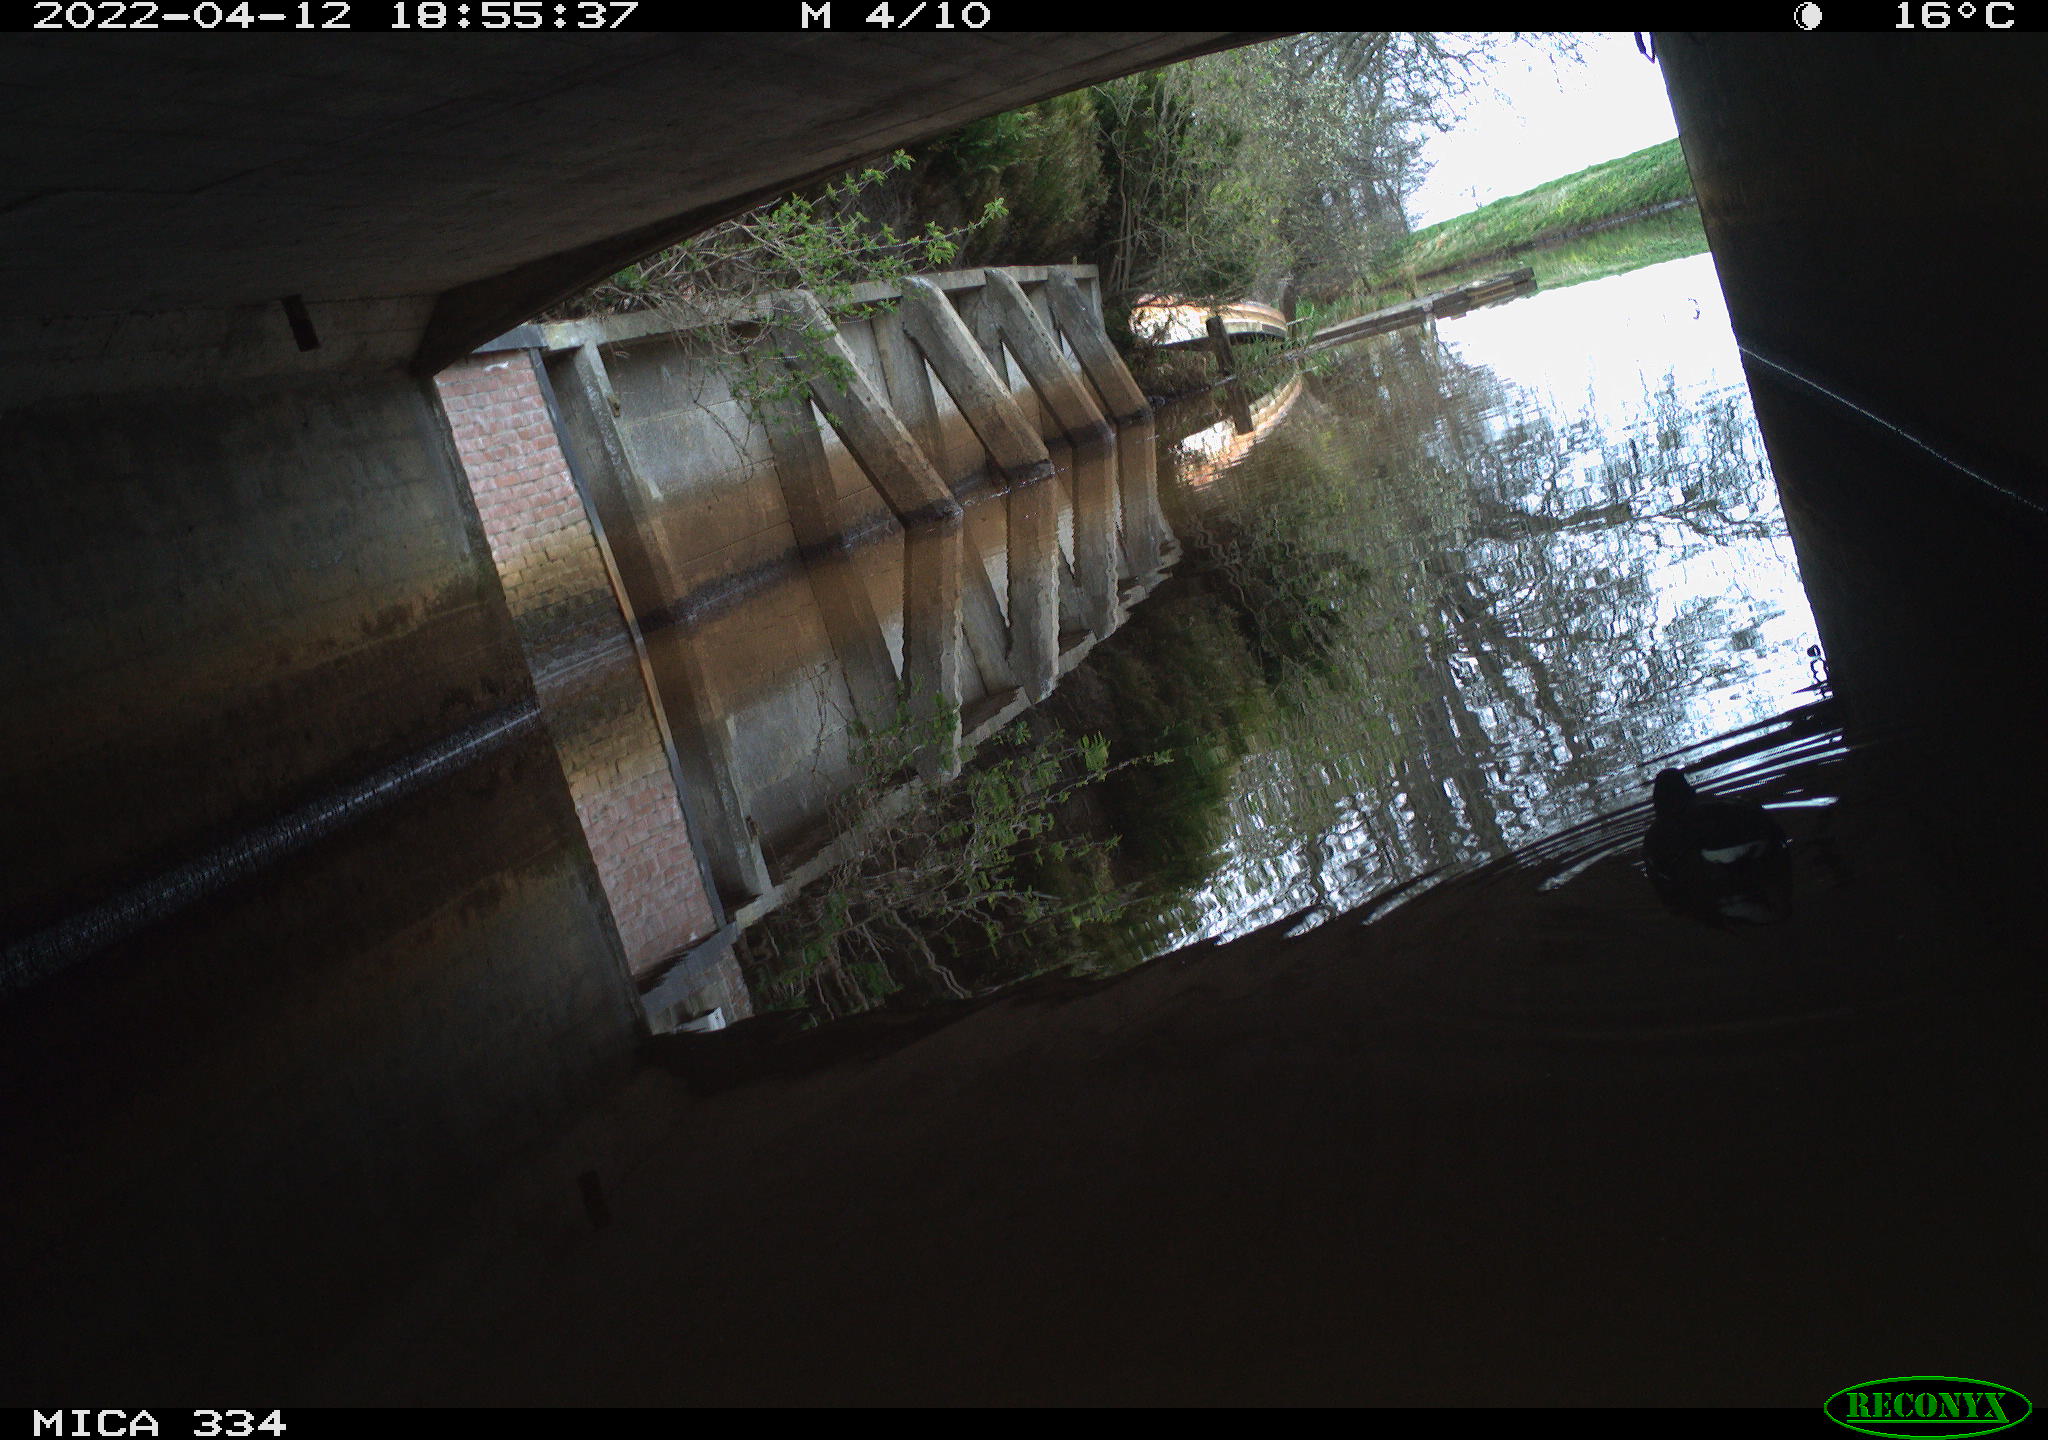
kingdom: Animalia
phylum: Chordata
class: Aves
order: Gruiformes
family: Rallidae
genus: Gallinula
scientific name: Gallinula chloropus
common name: Common moorhen
